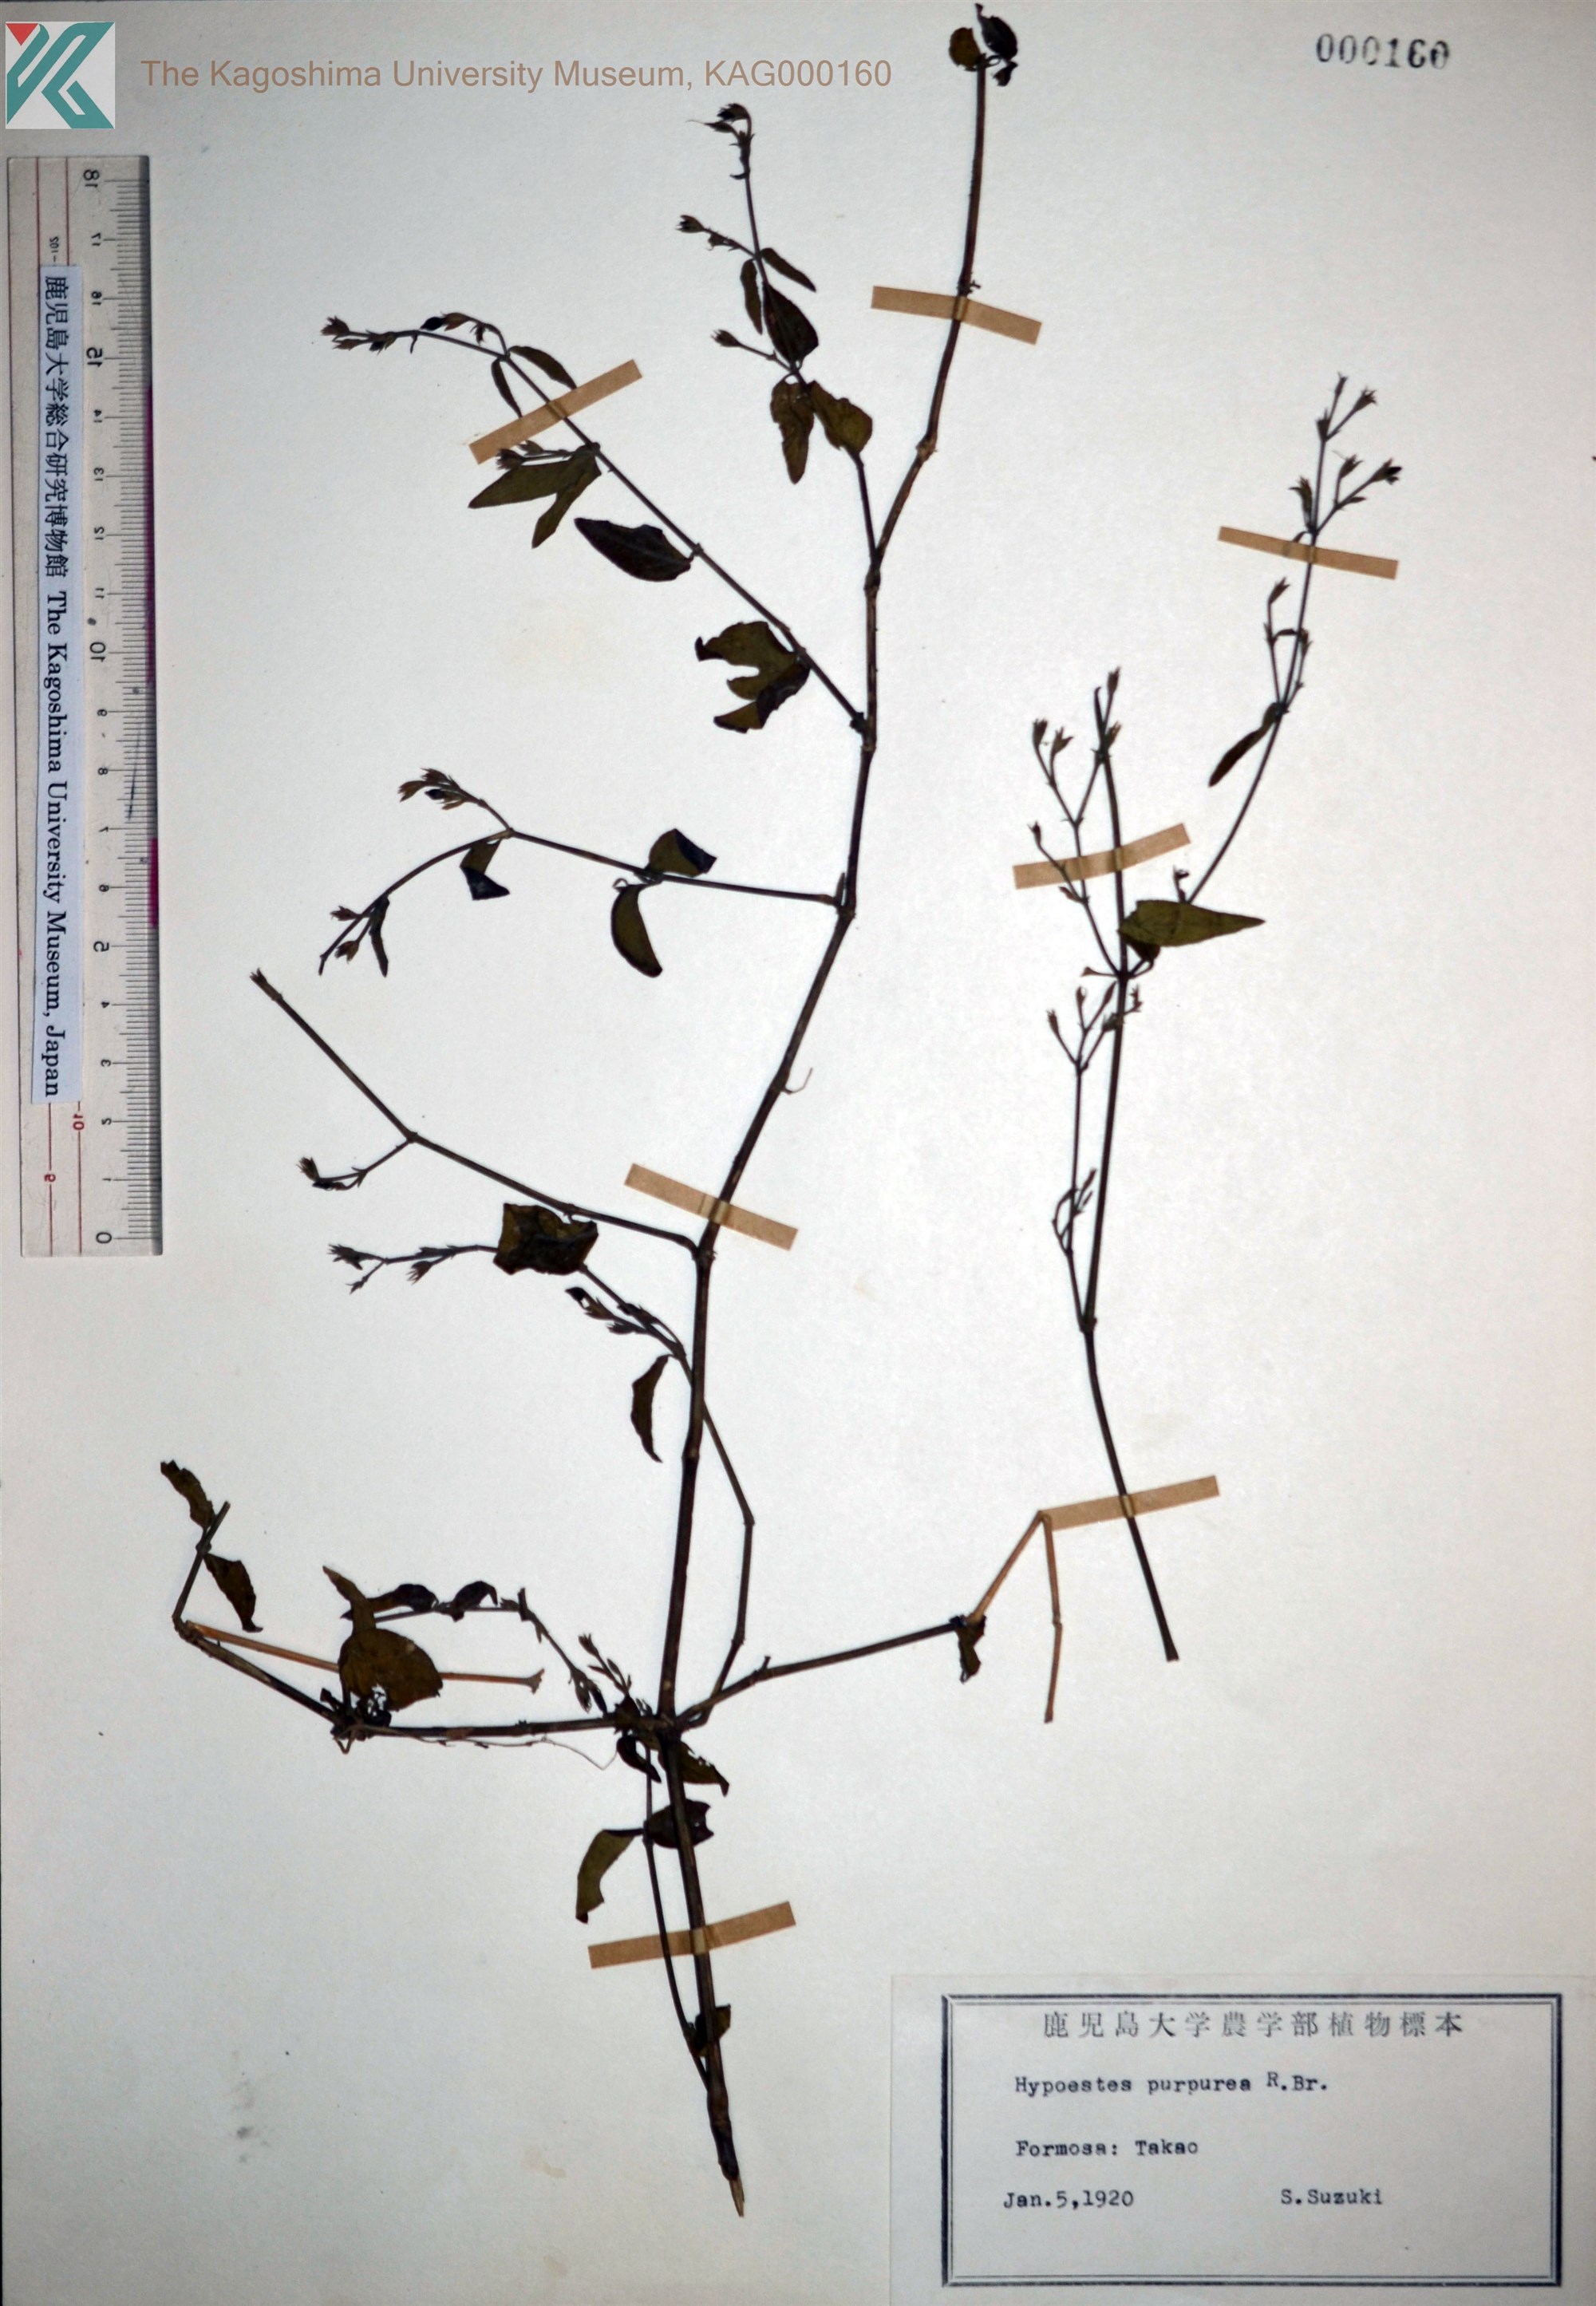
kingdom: Plantae
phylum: Tracheophyta
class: Magnoliopsida
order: Lamiales
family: Acanthaceae
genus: Hypoestes
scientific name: Hypoestes purpurea
